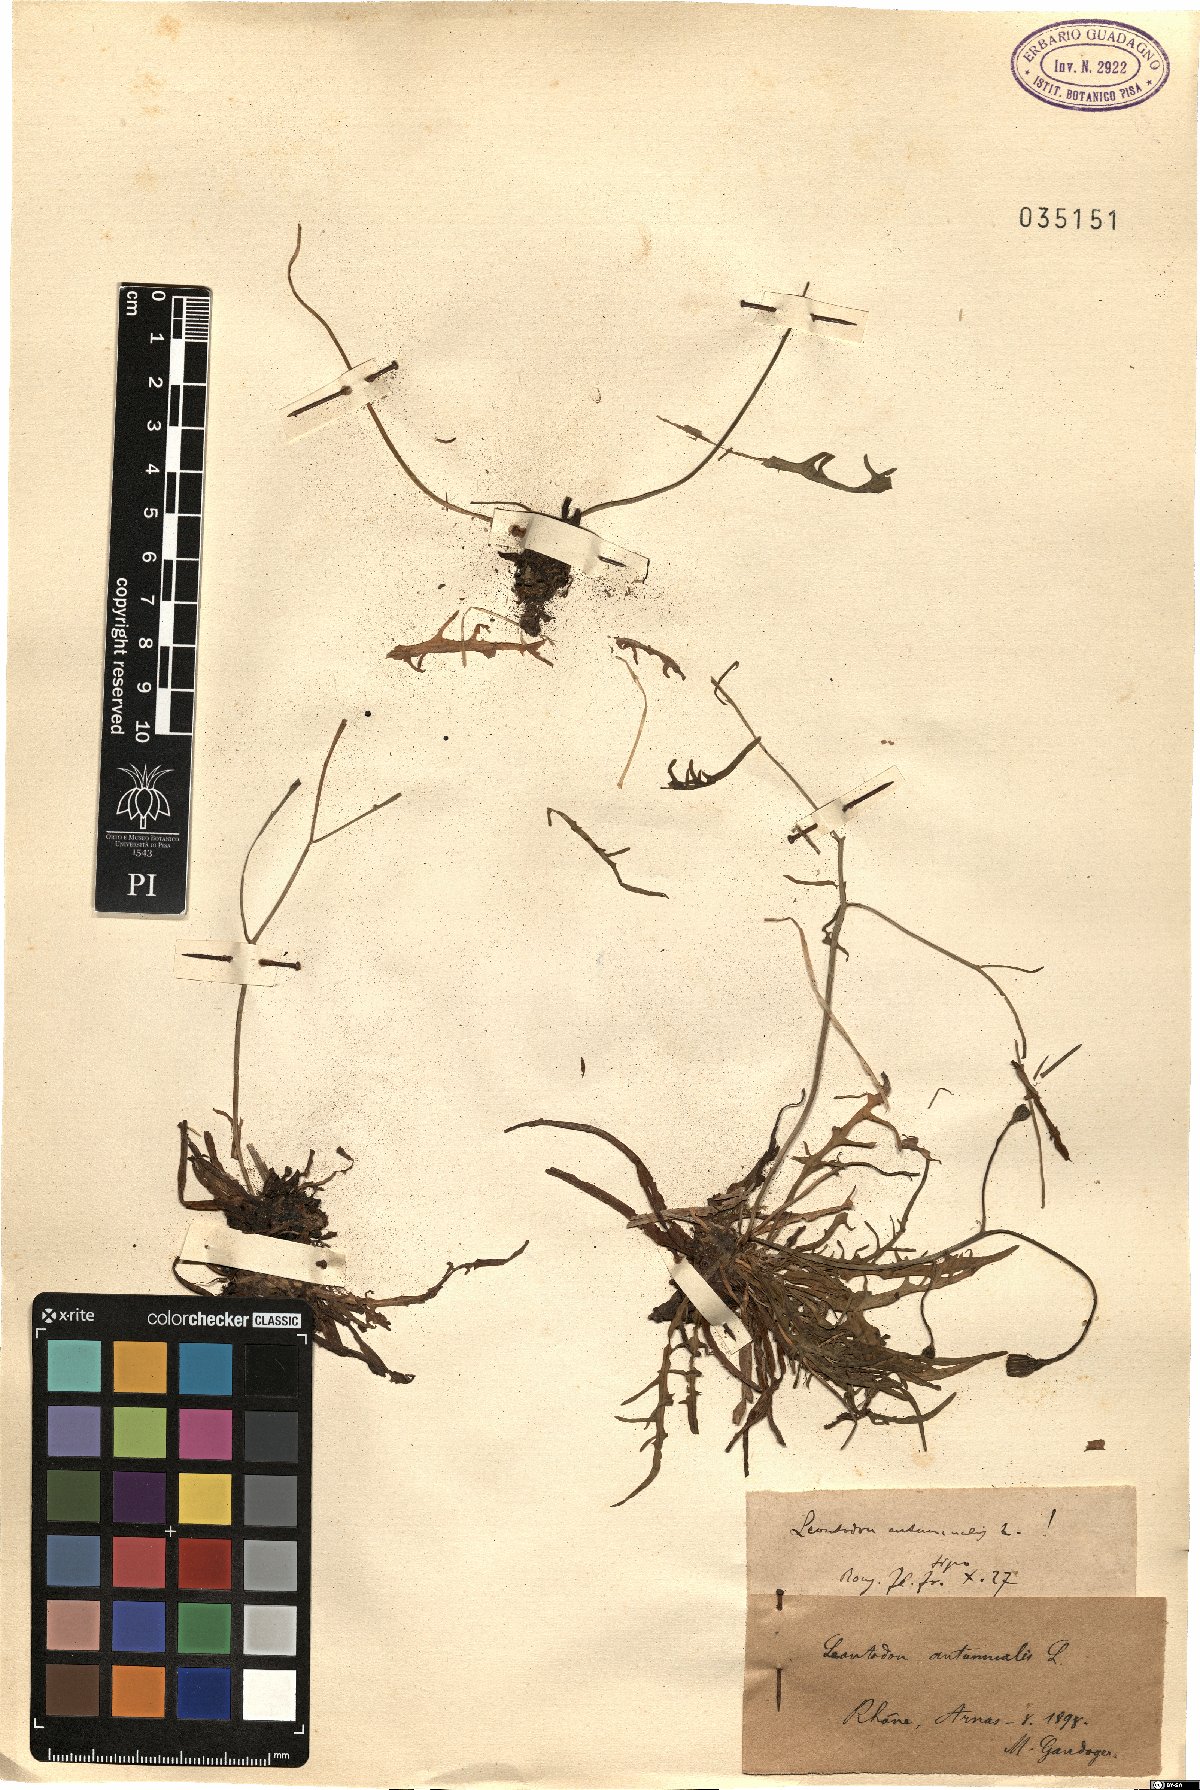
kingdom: Plantae
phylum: Tracheophyta
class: Magnoliopsida
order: Asterales
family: Asteraceae
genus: Scorzoneroides
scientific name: Scorzoneroides autumnalis
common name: Autumn hawkbit
